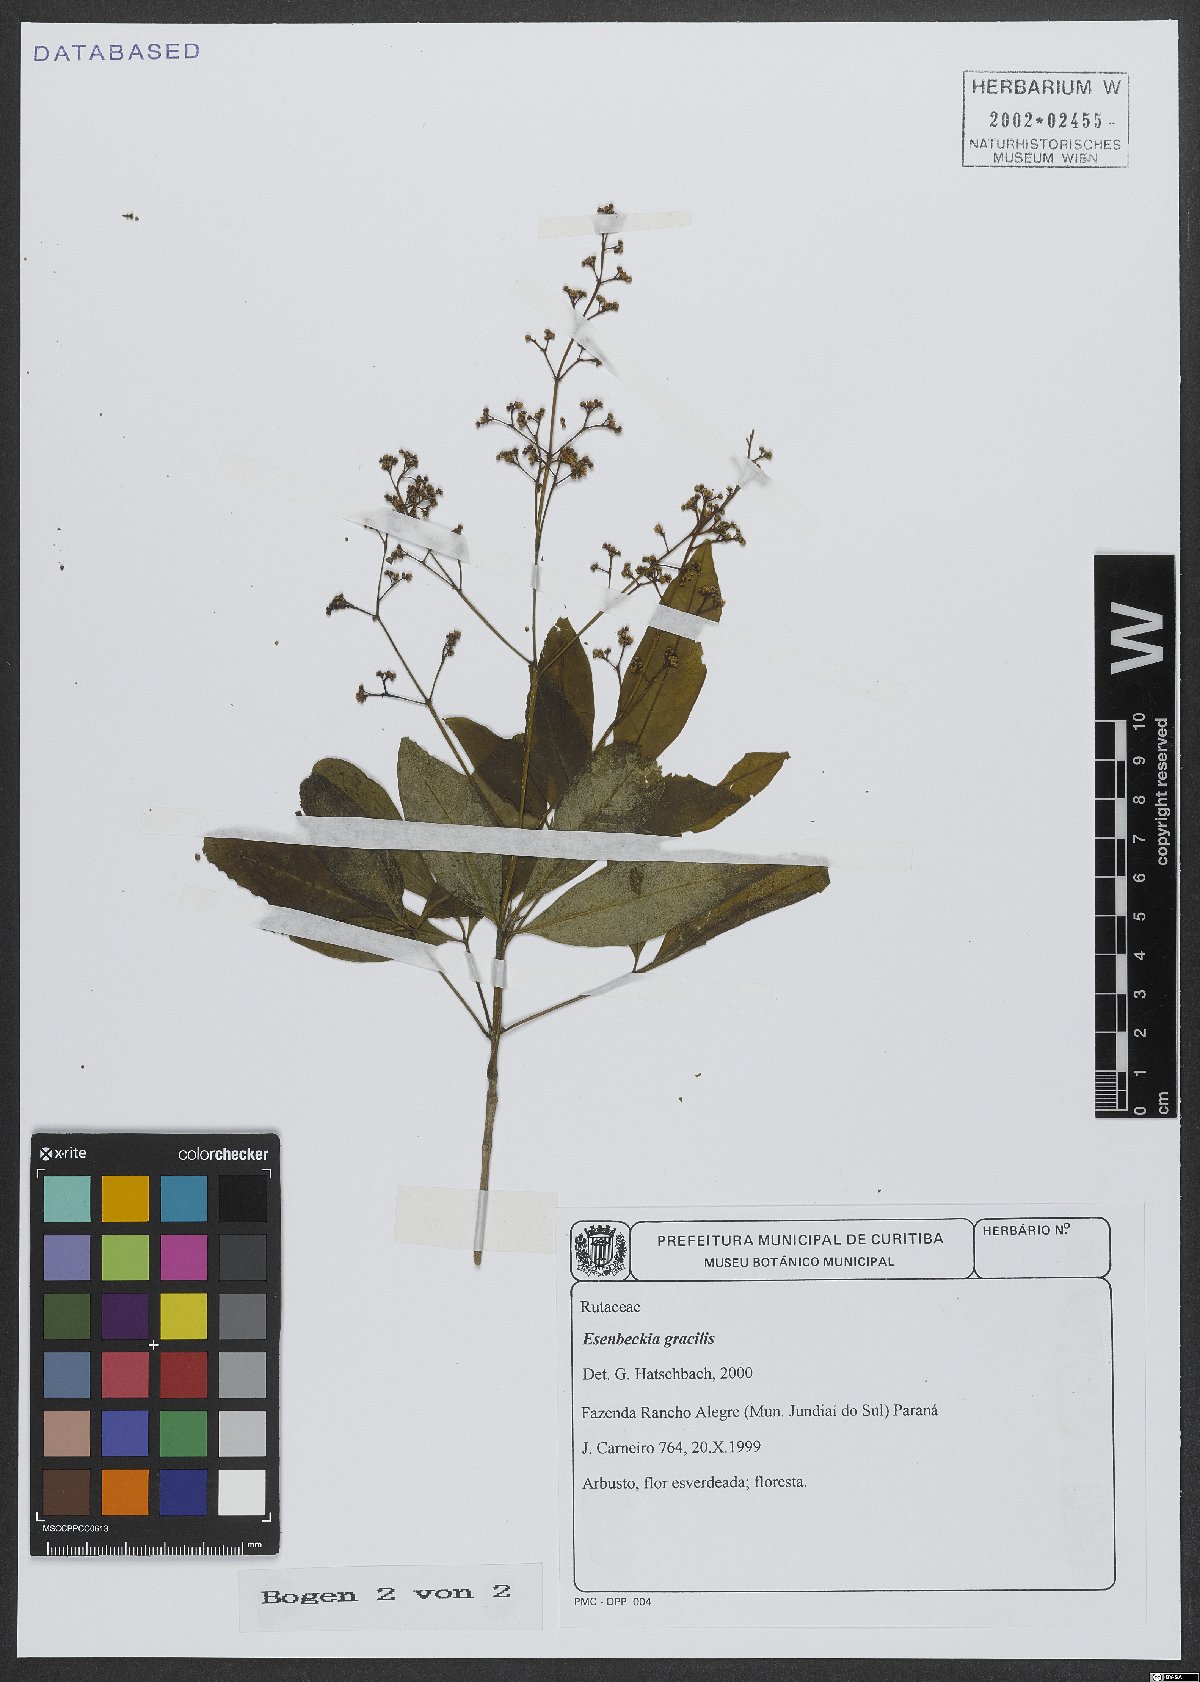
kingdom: Plantae
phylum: Tracheophyta
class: Magnoliopsida
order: Sapindales
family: Rutaceae
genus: Esenbeckia
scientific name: Esenbeckia febrifuga
